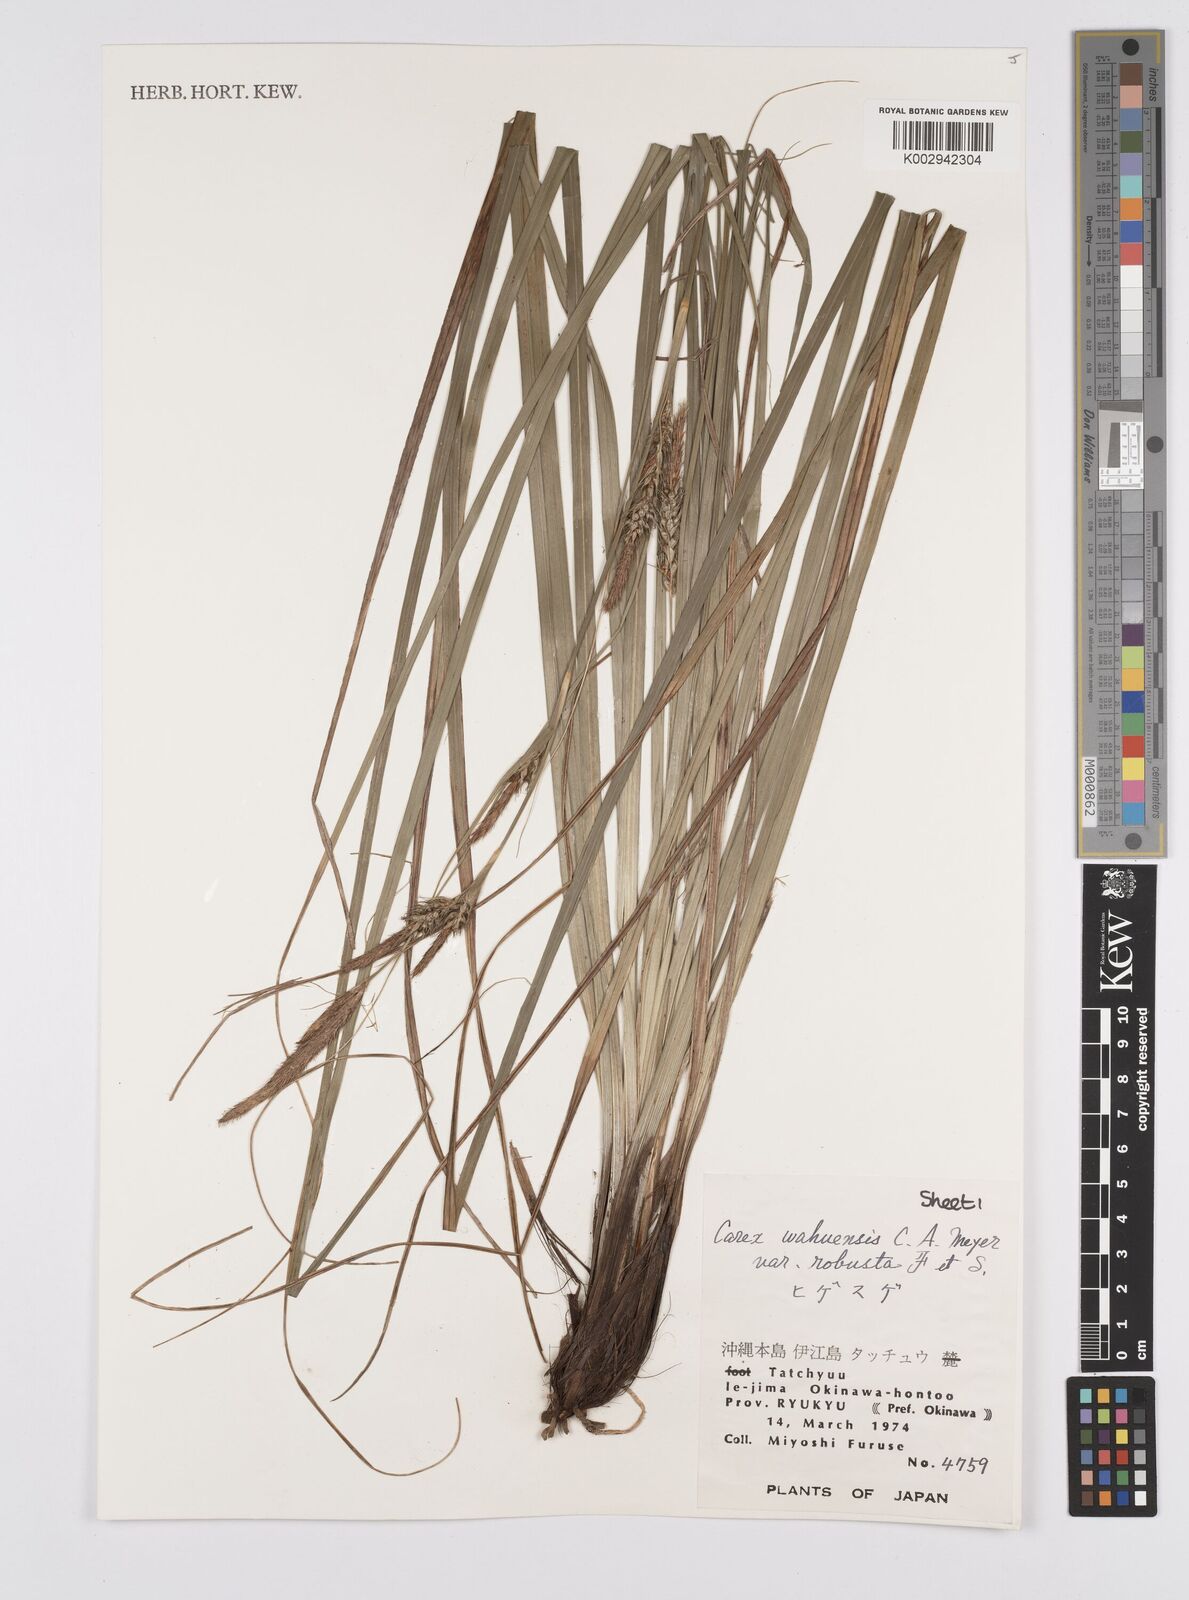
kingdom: Plantae
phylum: Tracheophyta
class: Liliopsida
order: Poales
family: Cyperaceae
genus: Carex
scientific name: Carex wahuensis
